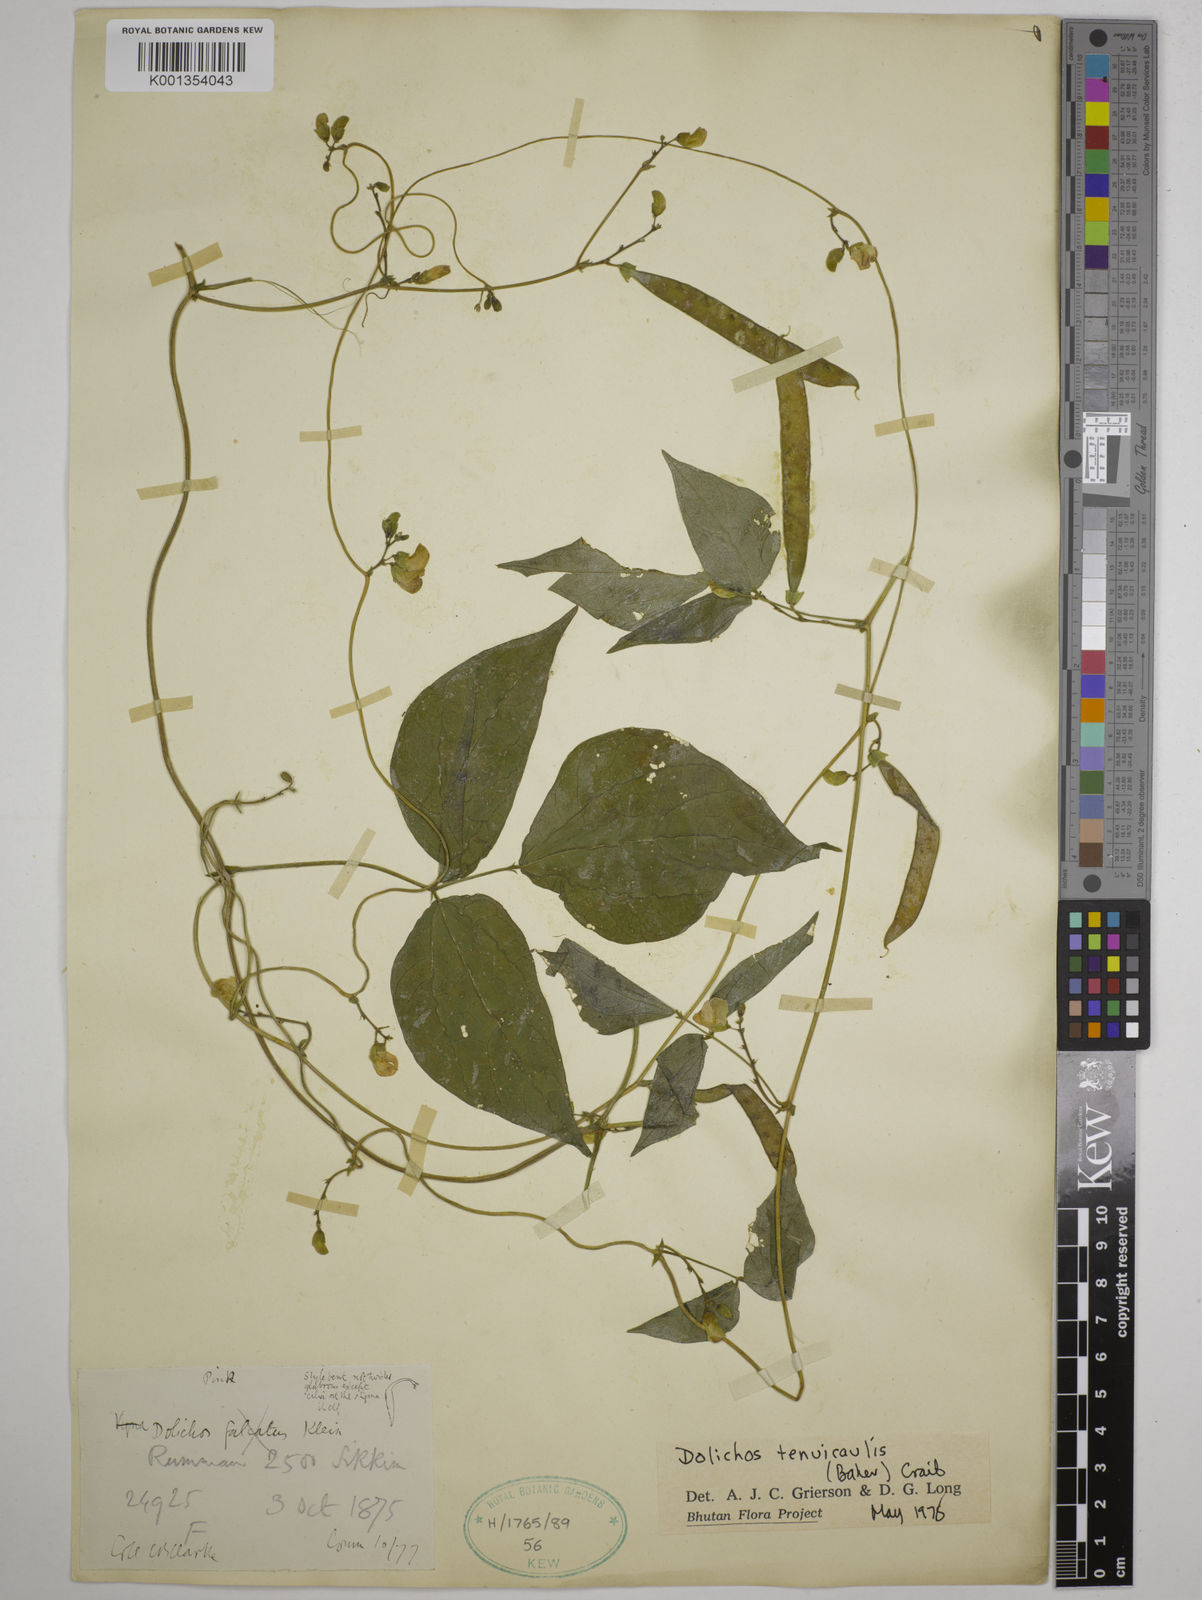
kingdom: Plantae
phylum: Tracheophyta
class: Magnoliopsida
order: Fabales
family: Fabaceae
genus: Dolichos
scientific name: Dolichos tenuicaulis
